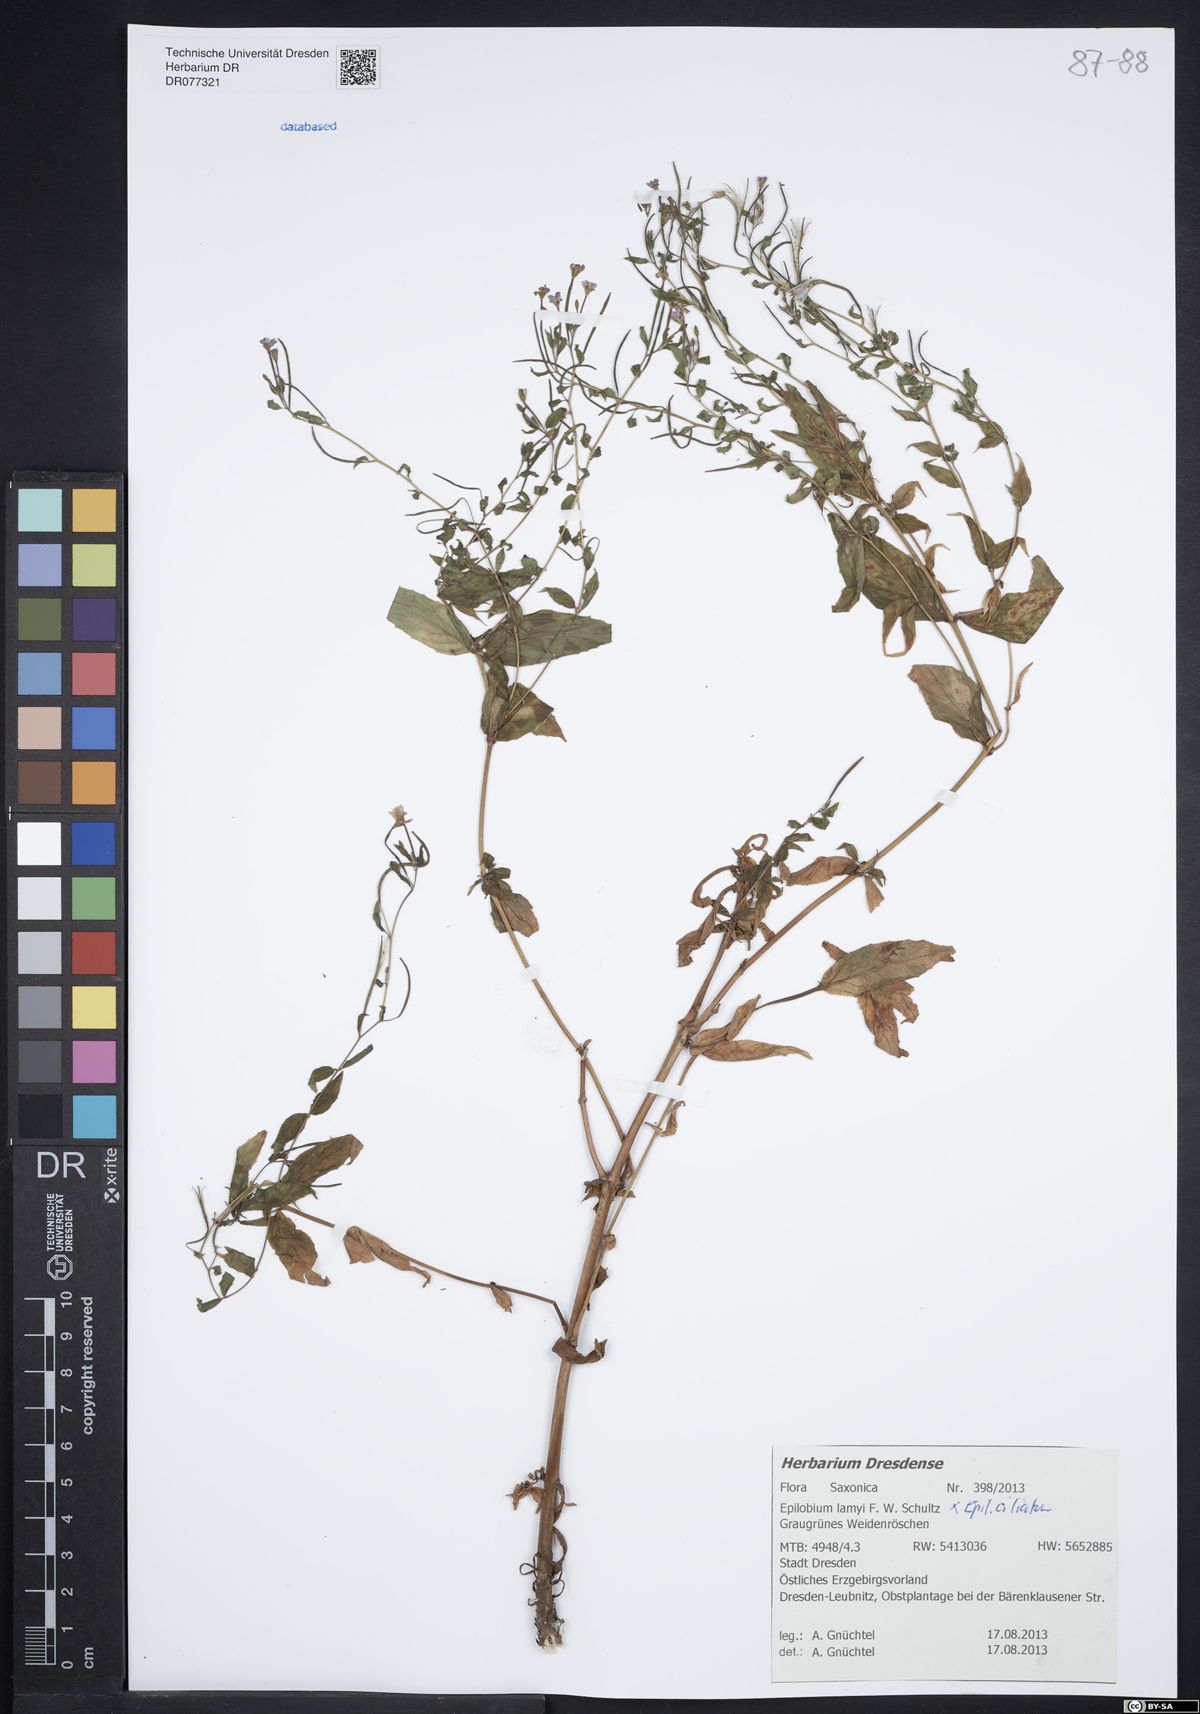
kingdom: Plantae
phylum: Tracheophyta
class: Magnoliopsida
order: Myrtales
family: Onagraceae
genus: Epilobium
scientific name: Epilobium lamyi
